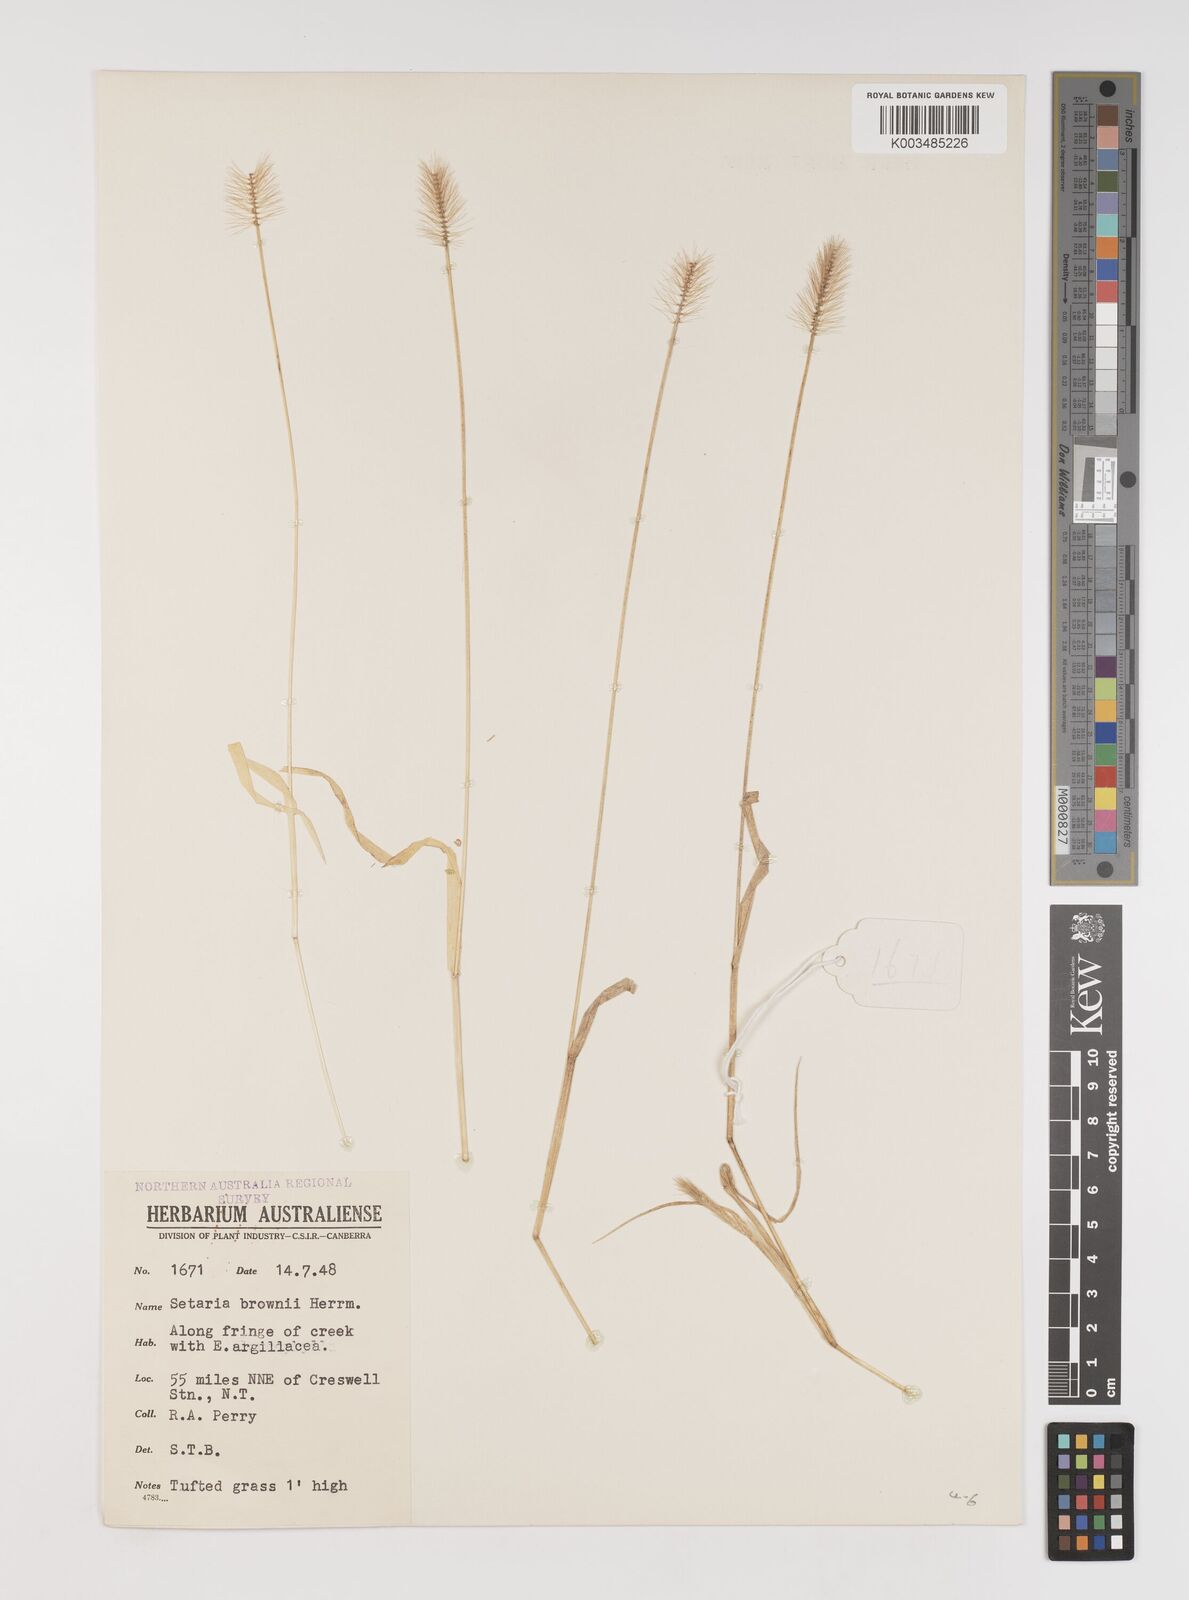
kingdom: Plantae
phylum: Tracheophyta
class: Liliopsida
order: Poales
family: Poaceae
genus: Setaria
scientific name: Setaria surgens
